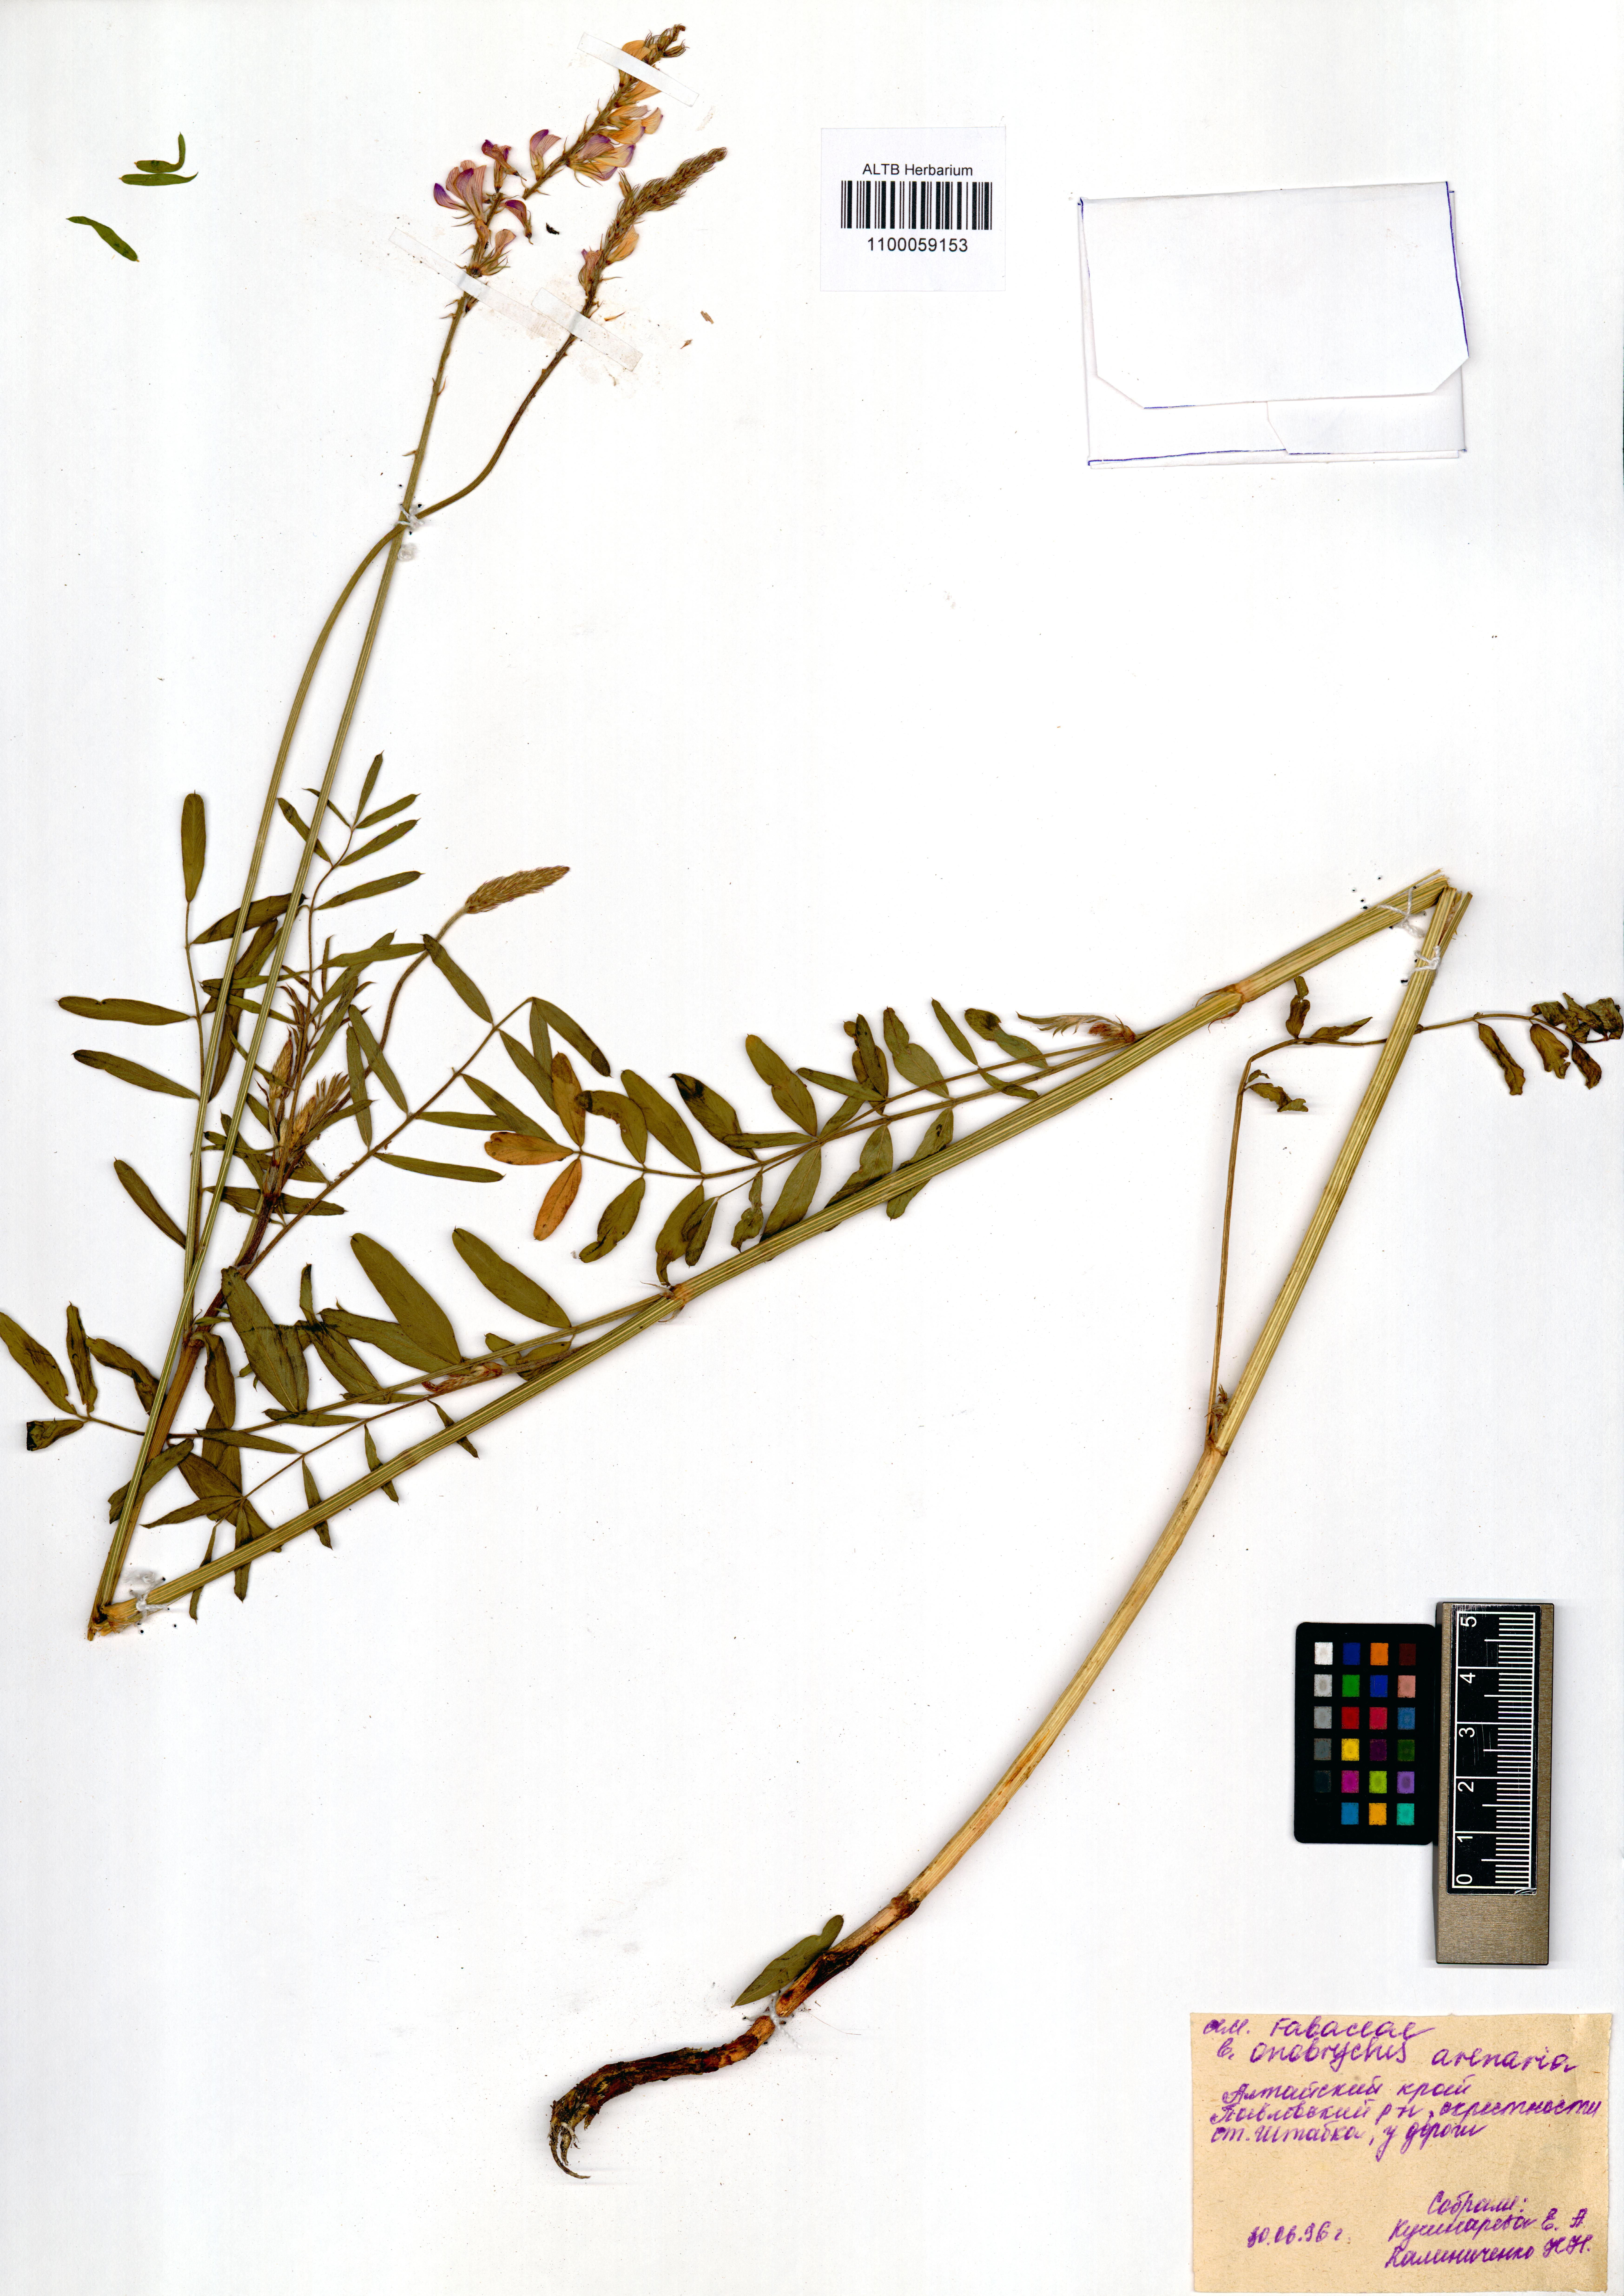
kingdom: Plantae
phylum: Tracheophyta
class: Magnoliopsida
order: Fabales
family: Fabaceae
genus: Onobrychis
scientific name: Onobrychis arenaria
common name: Sand esparcet
